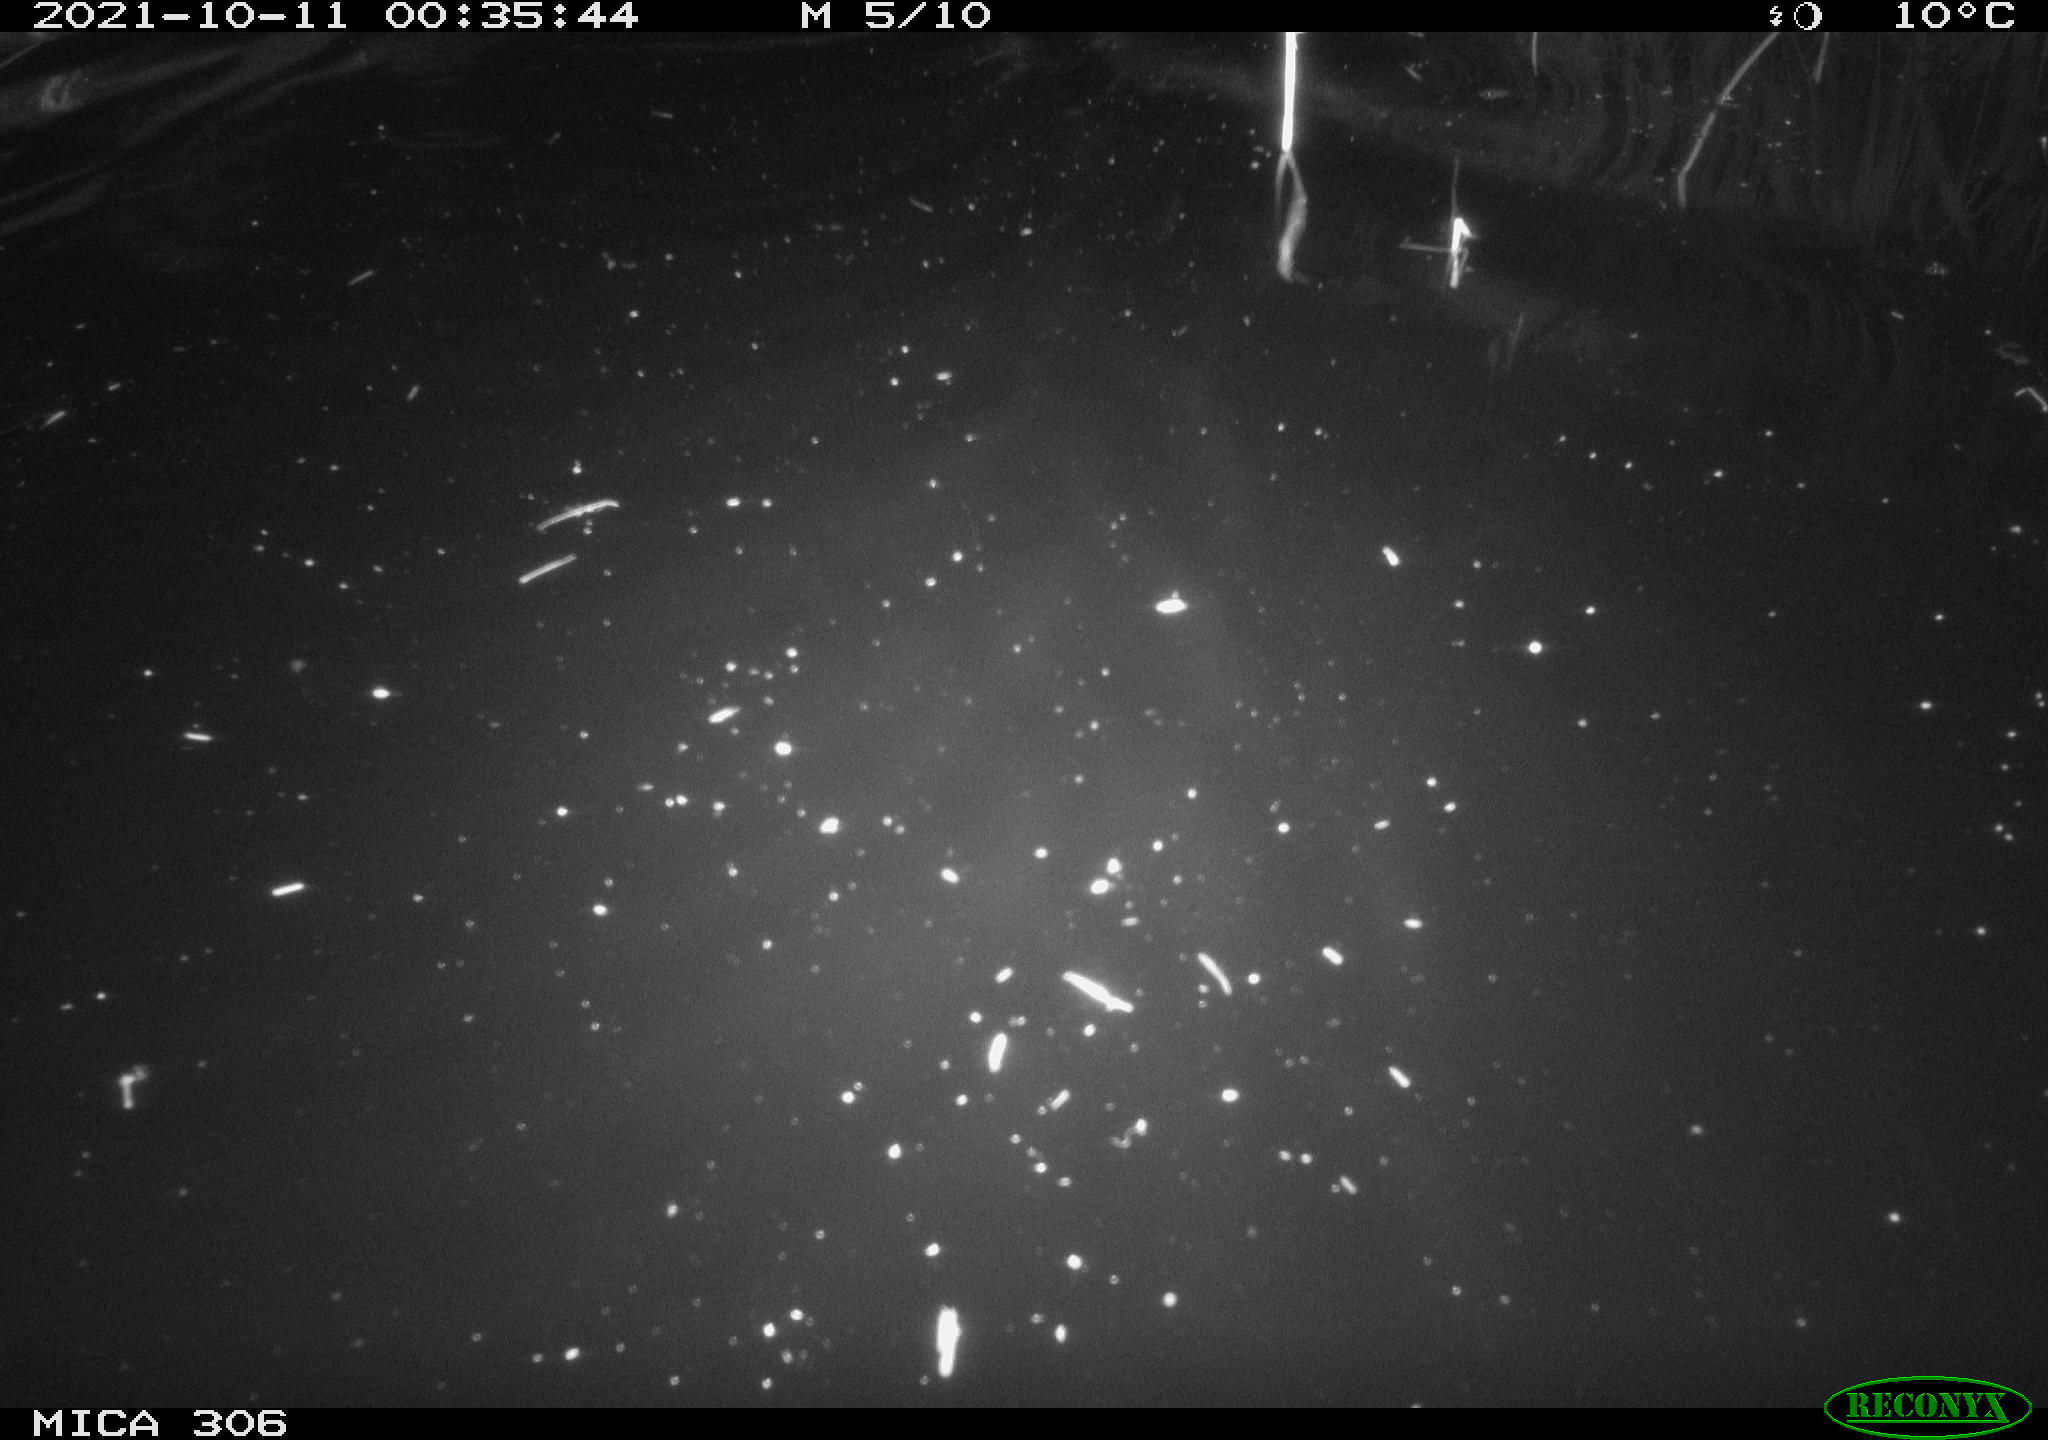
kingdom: Animalia
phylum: Chordata
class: Mammalia
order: Rodentia
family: Cricetidae
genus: Ondatra
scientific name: Ondatra zibethicus
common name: Muskrat
